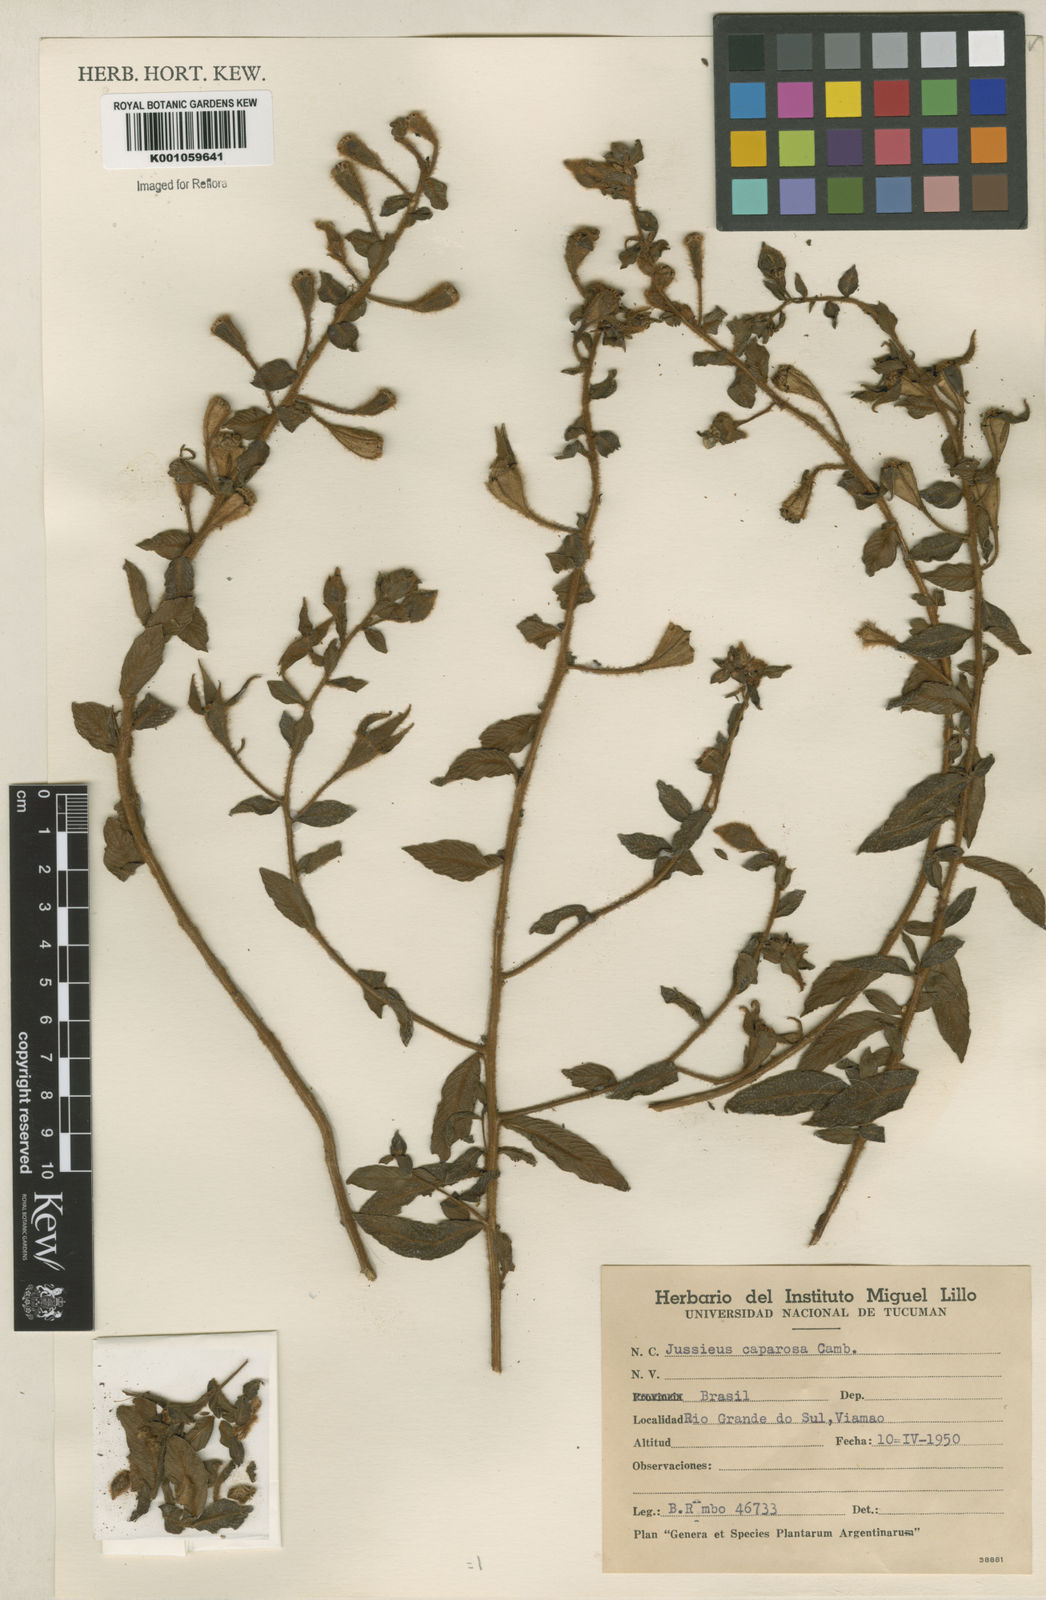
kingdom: Plantae
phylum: Tracheophyta
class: Magnoliopsida
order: Myrtales
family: Onagraceae
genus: Ludwigia
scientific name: Ludwigia caparosa
